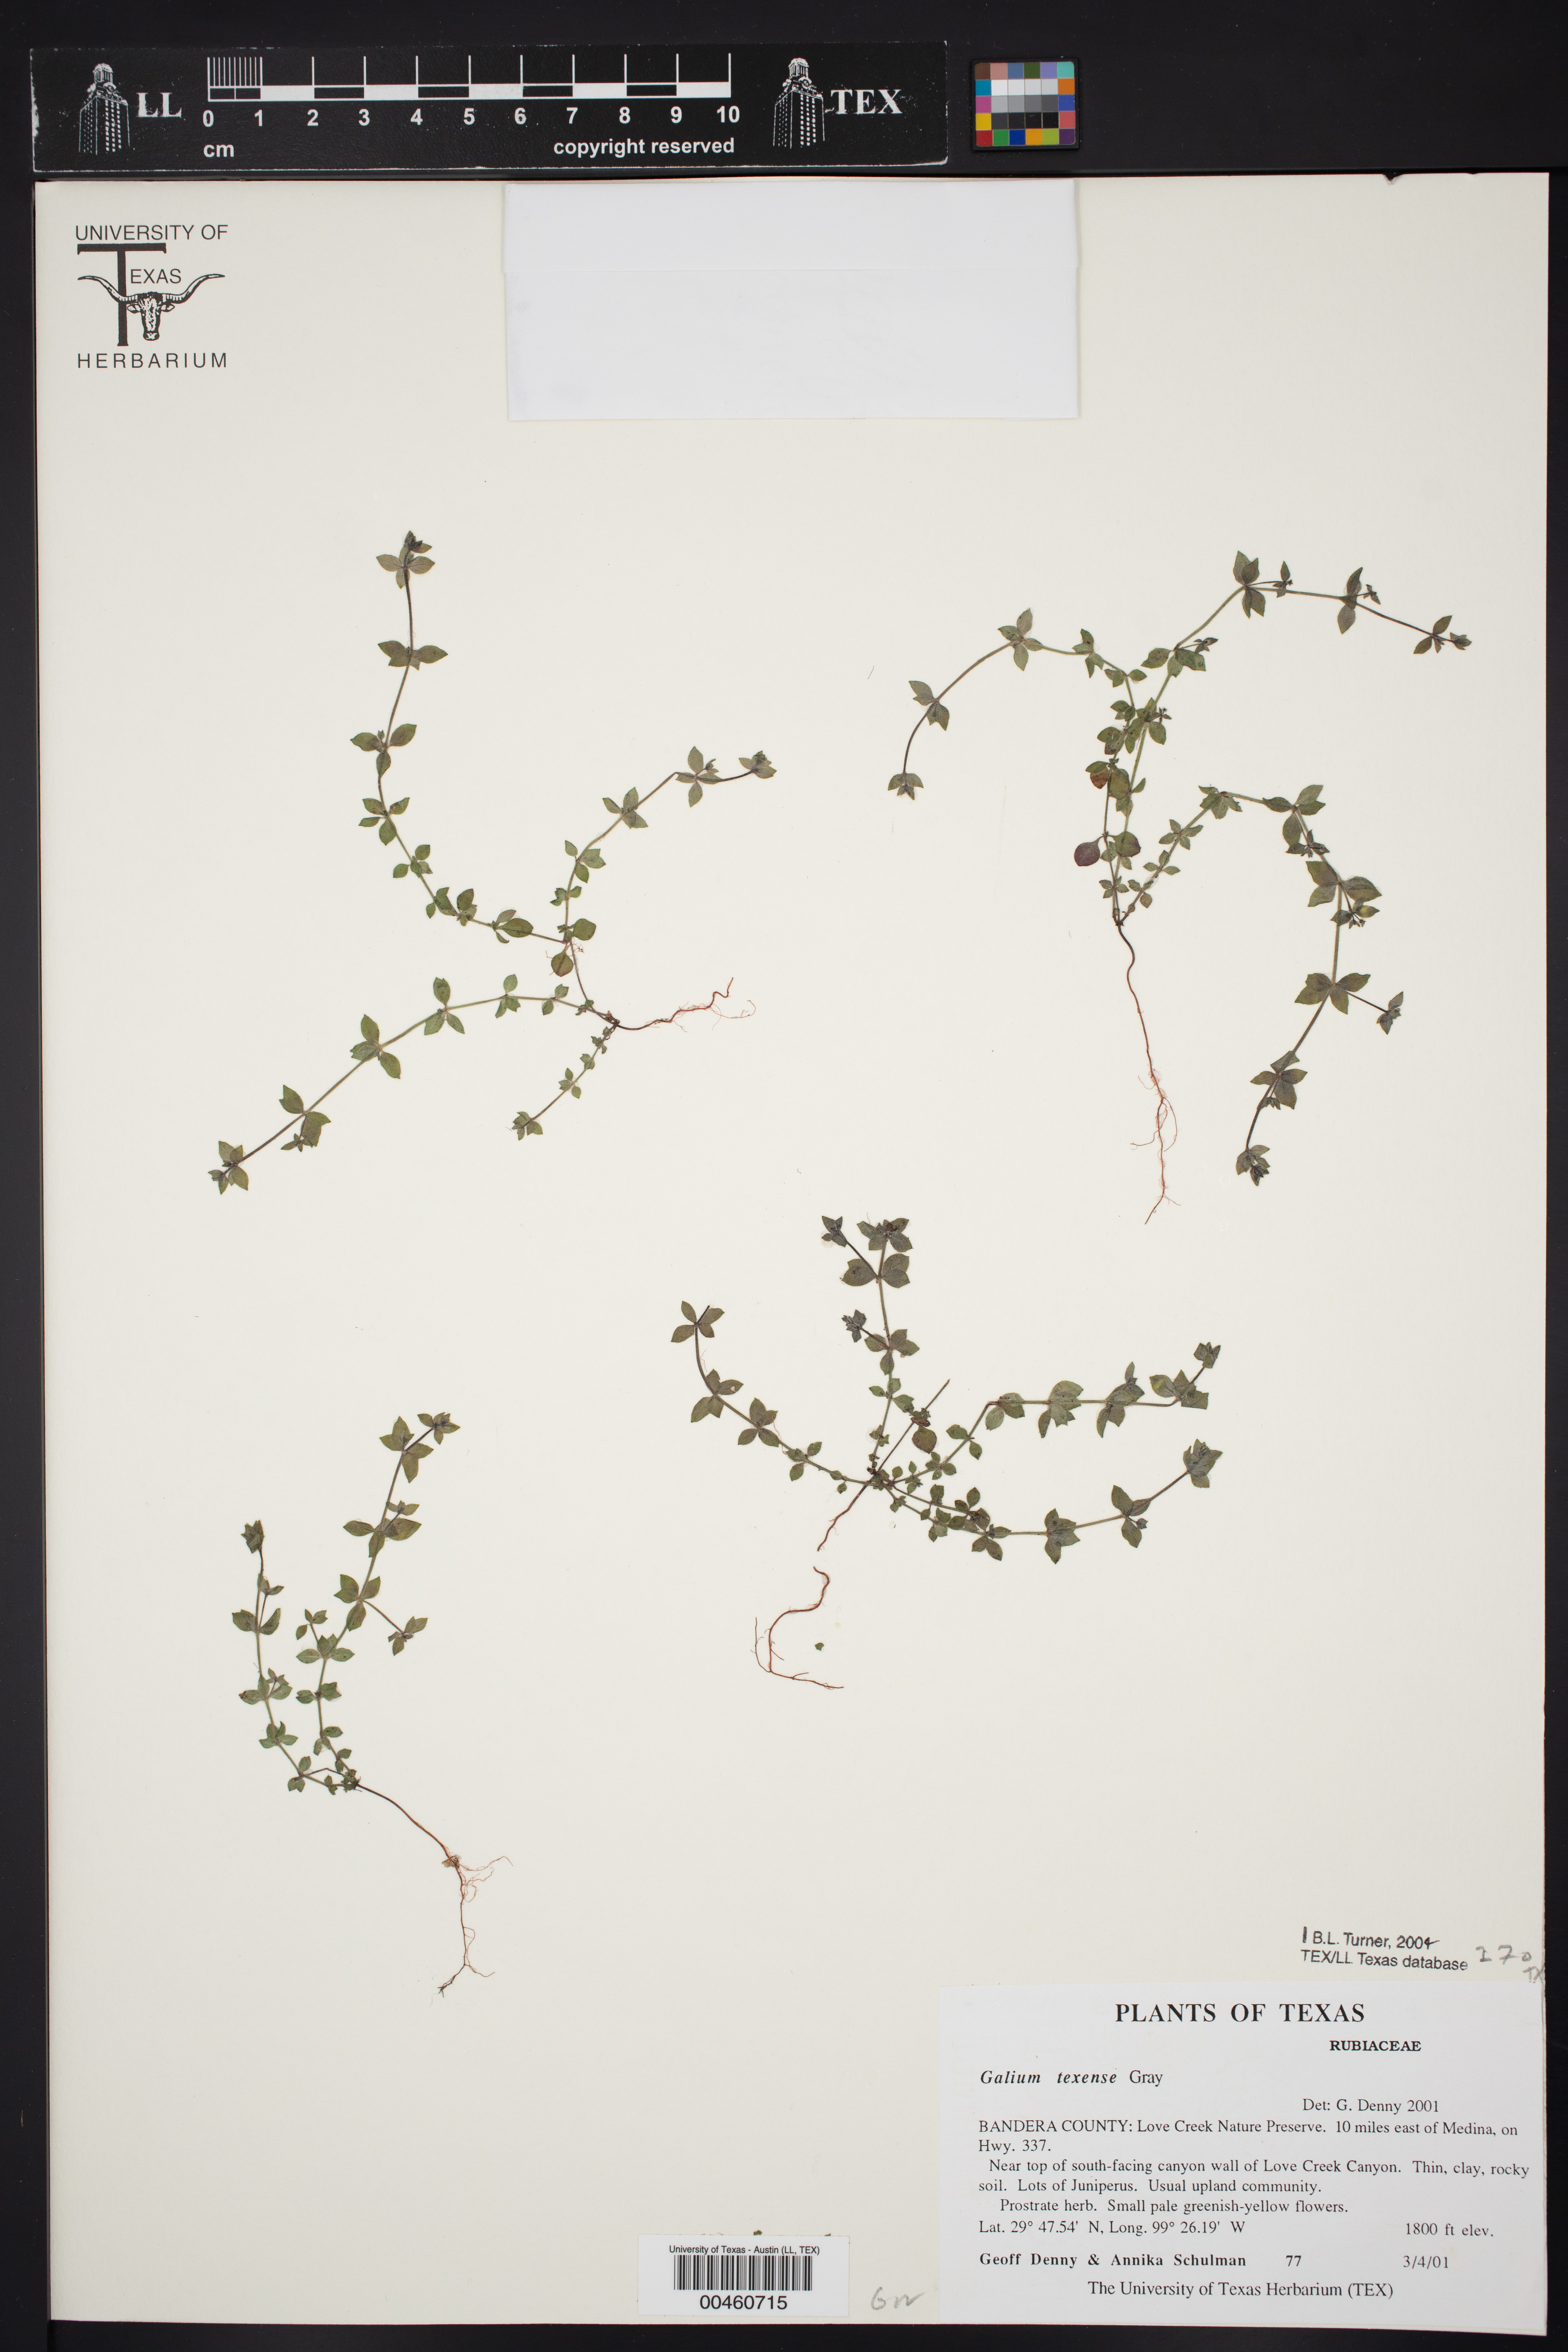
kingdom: Plantae
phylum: Tracheophyta
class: Magnoliopsida
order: Gentianales
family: Rubiaceae
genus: Galium
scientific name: Galium texense
